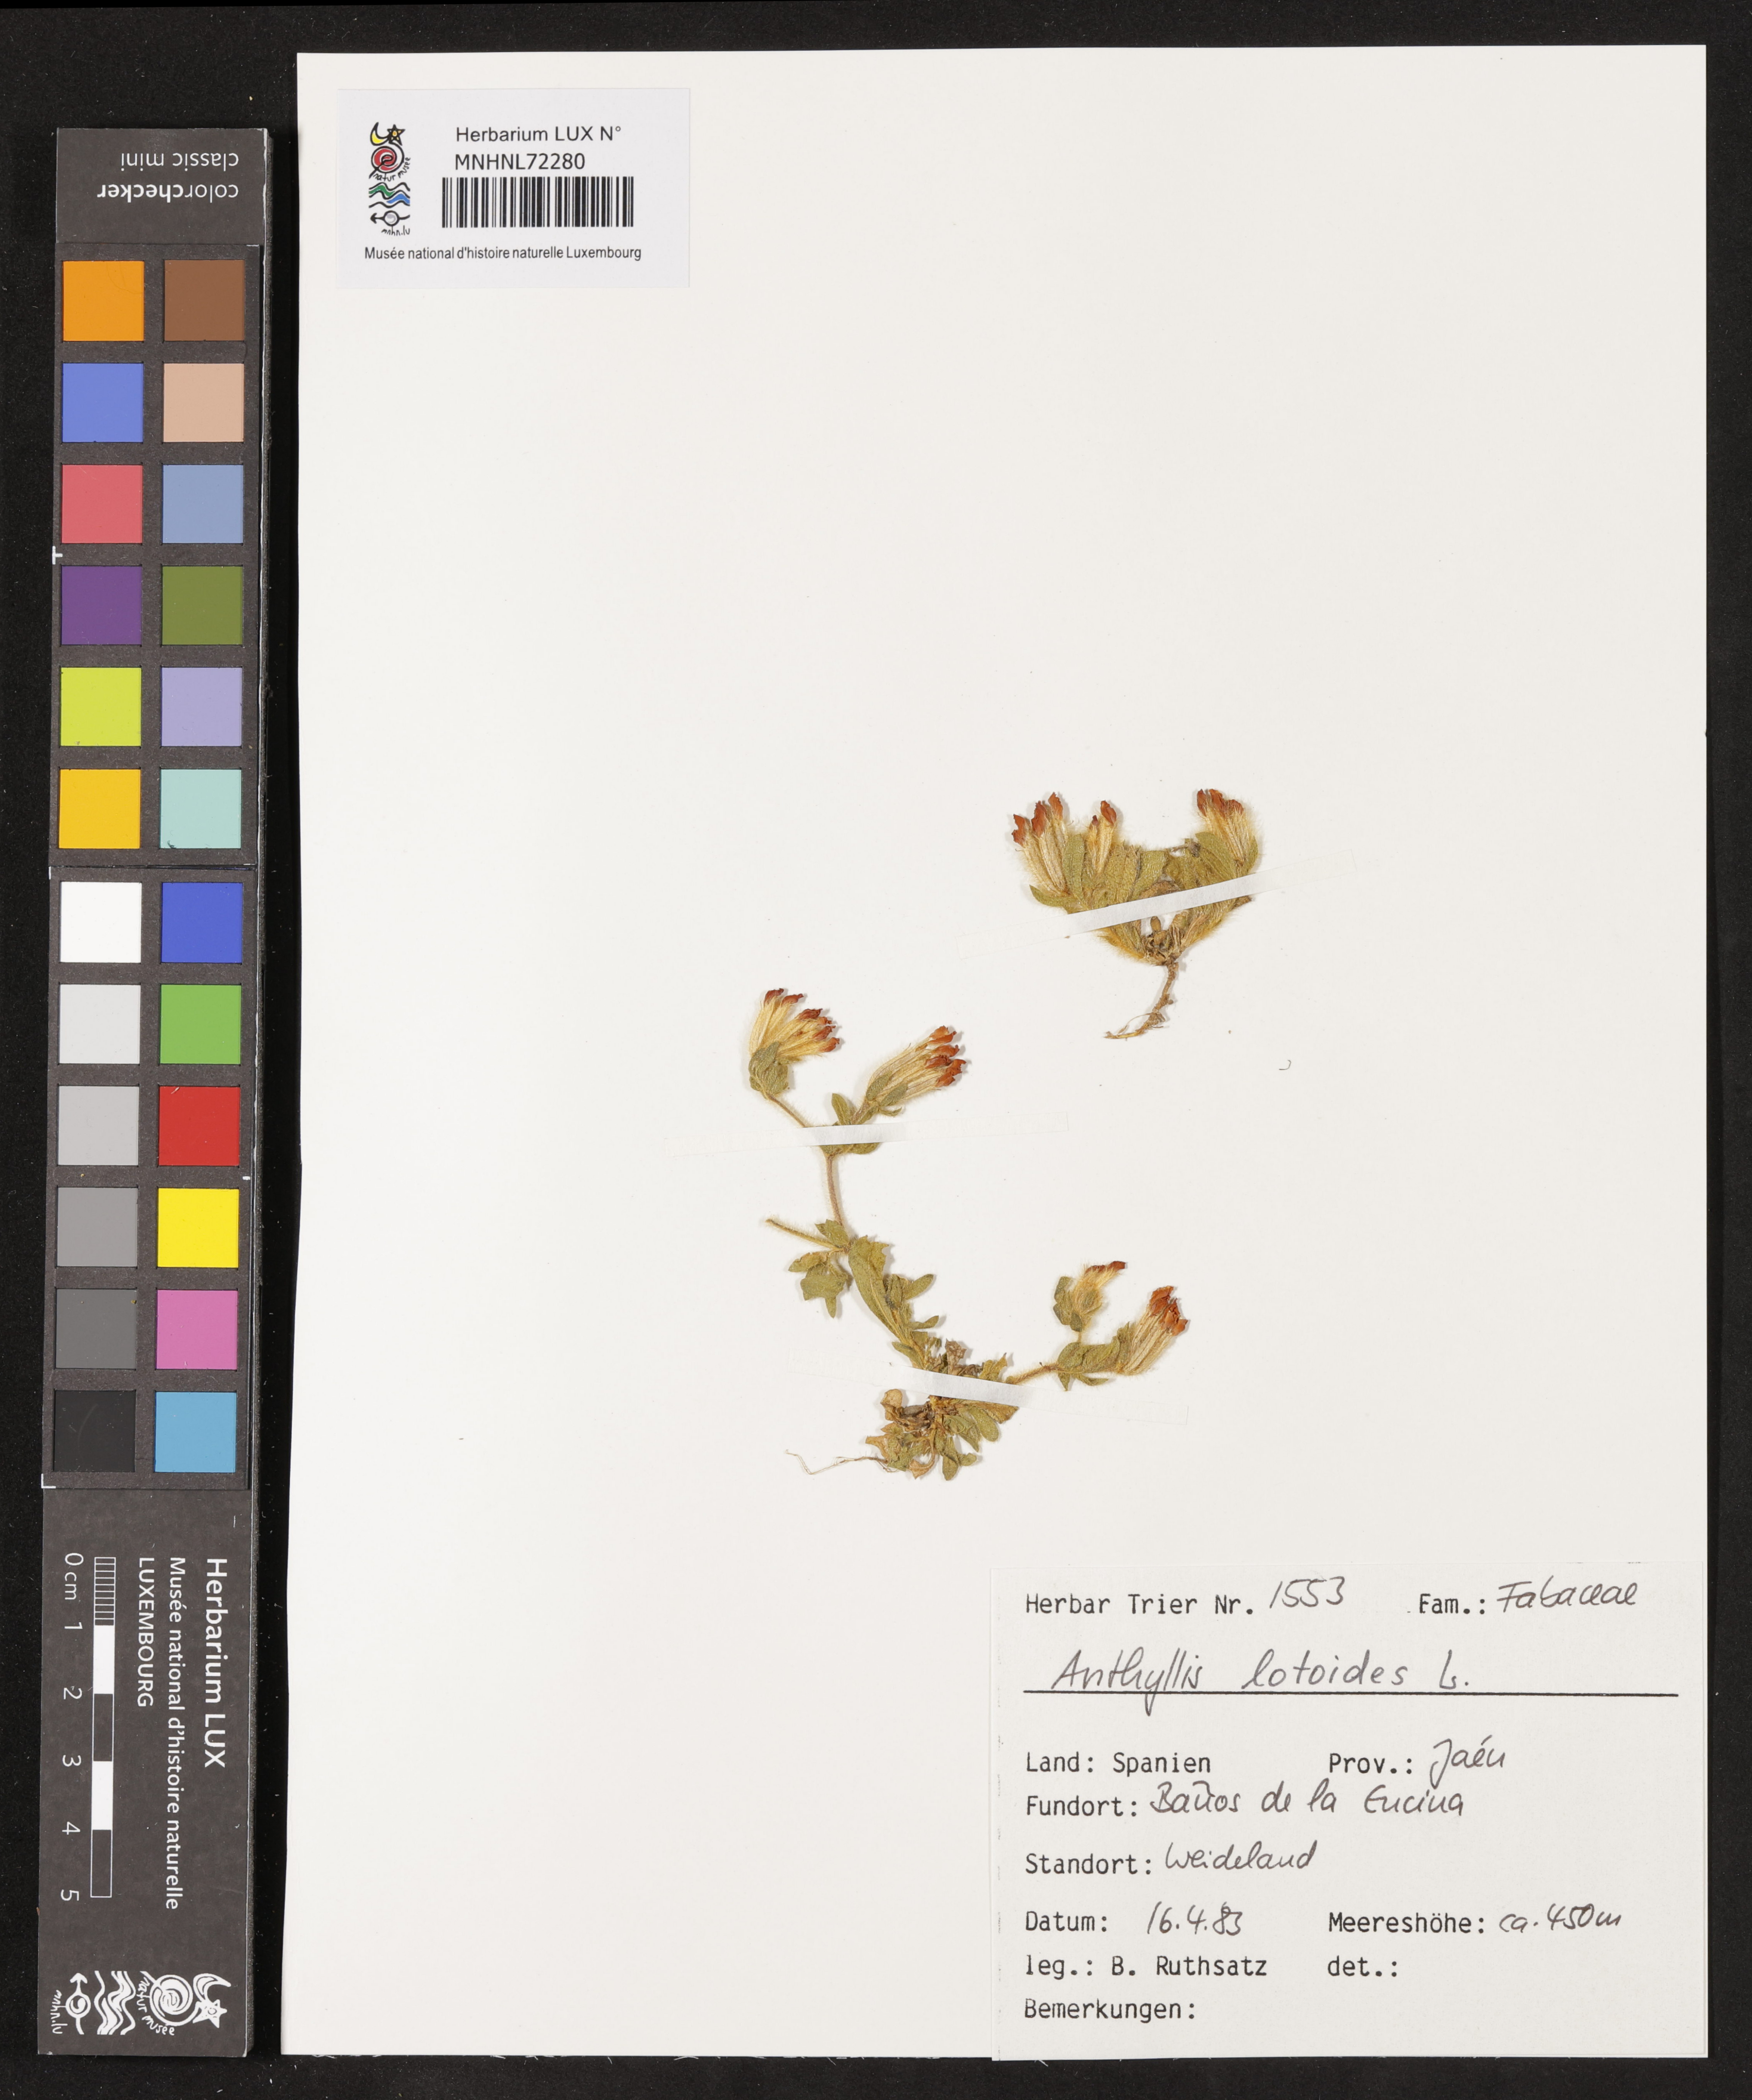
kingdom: Plantae
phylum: Tracheophyta
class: Magnoliopsida
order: Fabales
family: Fabaceae
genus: Anthyllis
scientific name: Anthyllis lotoides
